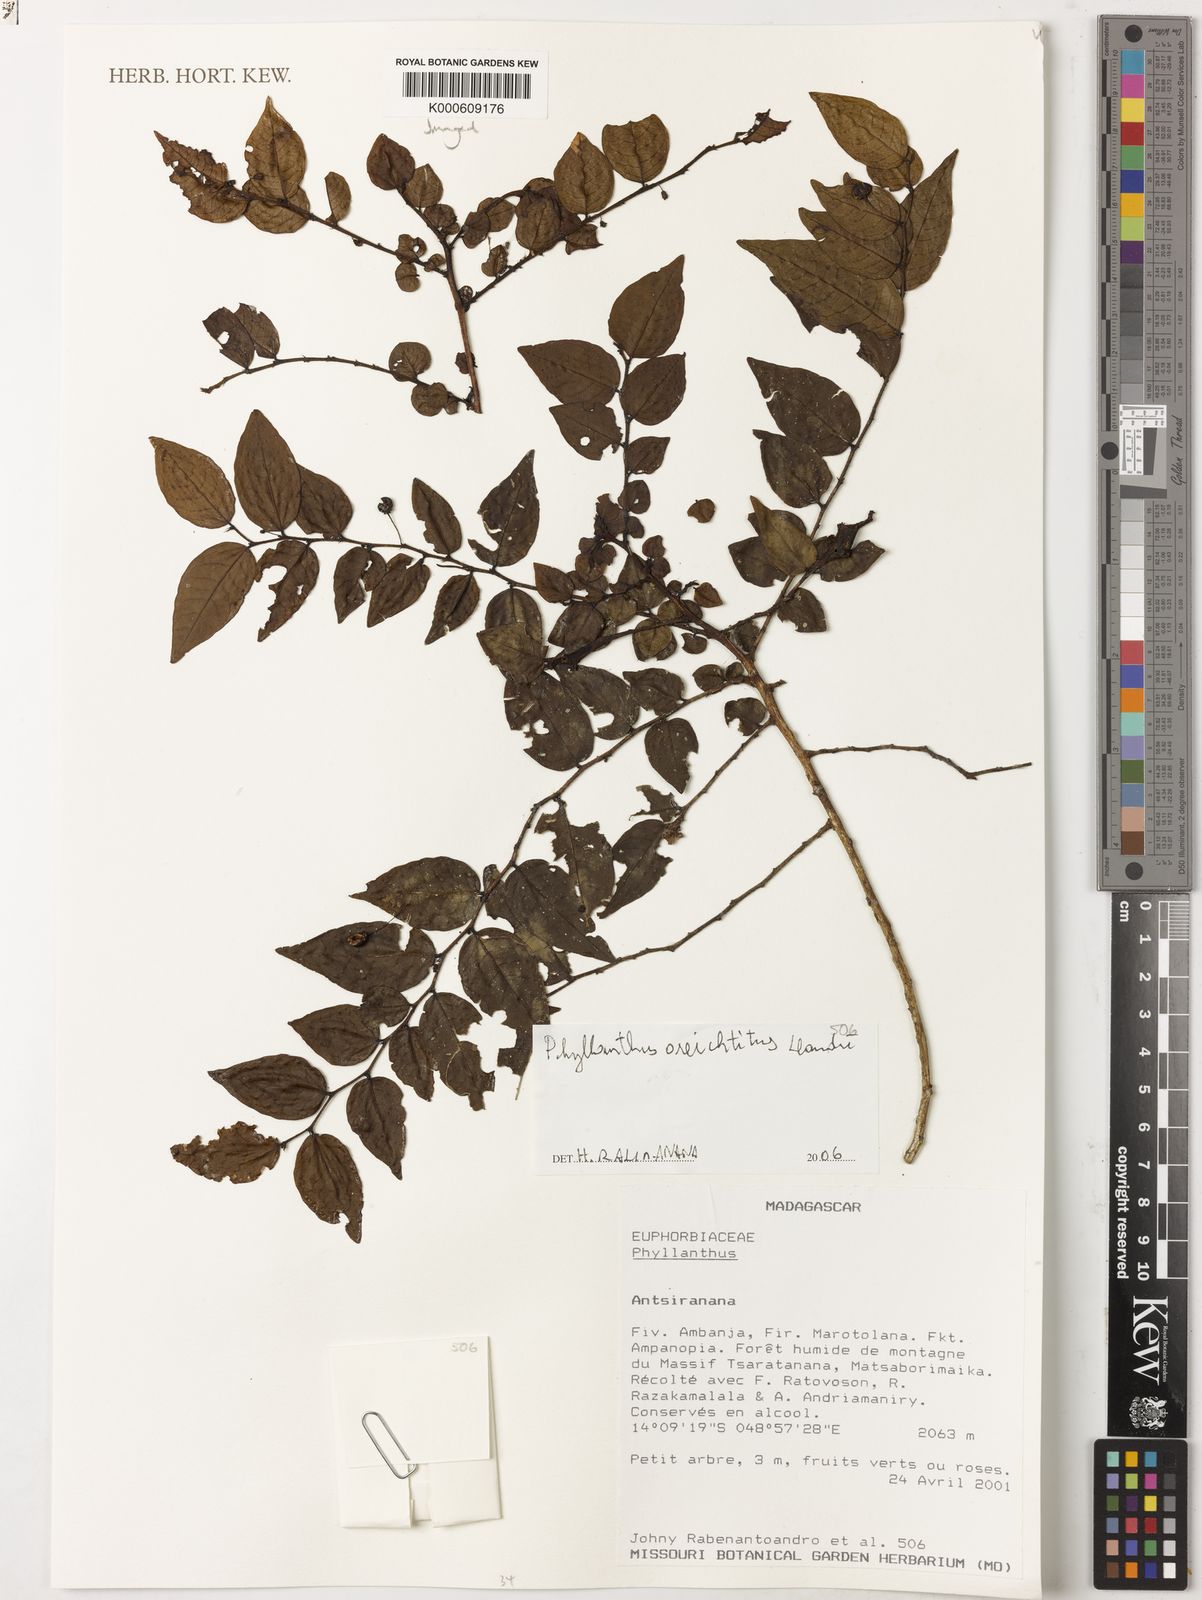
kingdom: Plantae
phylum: Tracheophyta
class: Magnoliopsida
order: Malpighiales
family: Phyllanthaceae
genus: Phyllanthus
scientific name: Phyllanthus oreichtitus
